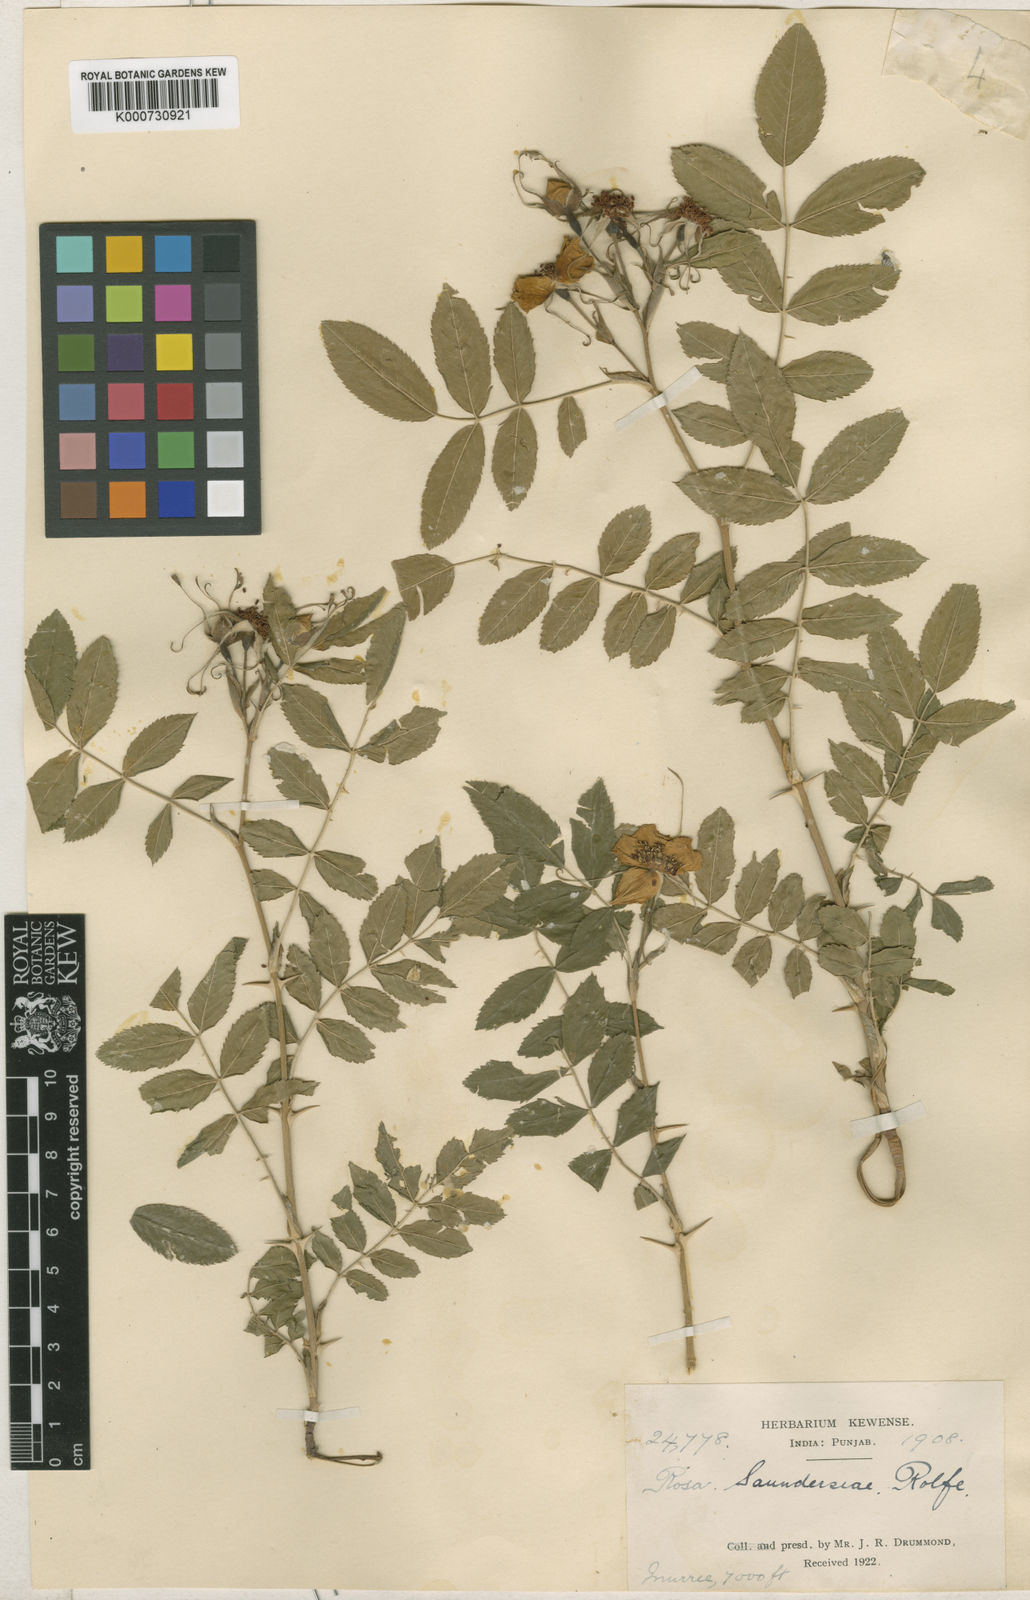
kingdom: Plantae
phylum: Tracheophyta
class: Magnoliopsida
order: Rosales
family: Rosaceae
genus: Rosa
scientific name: Rosa saundersiae
